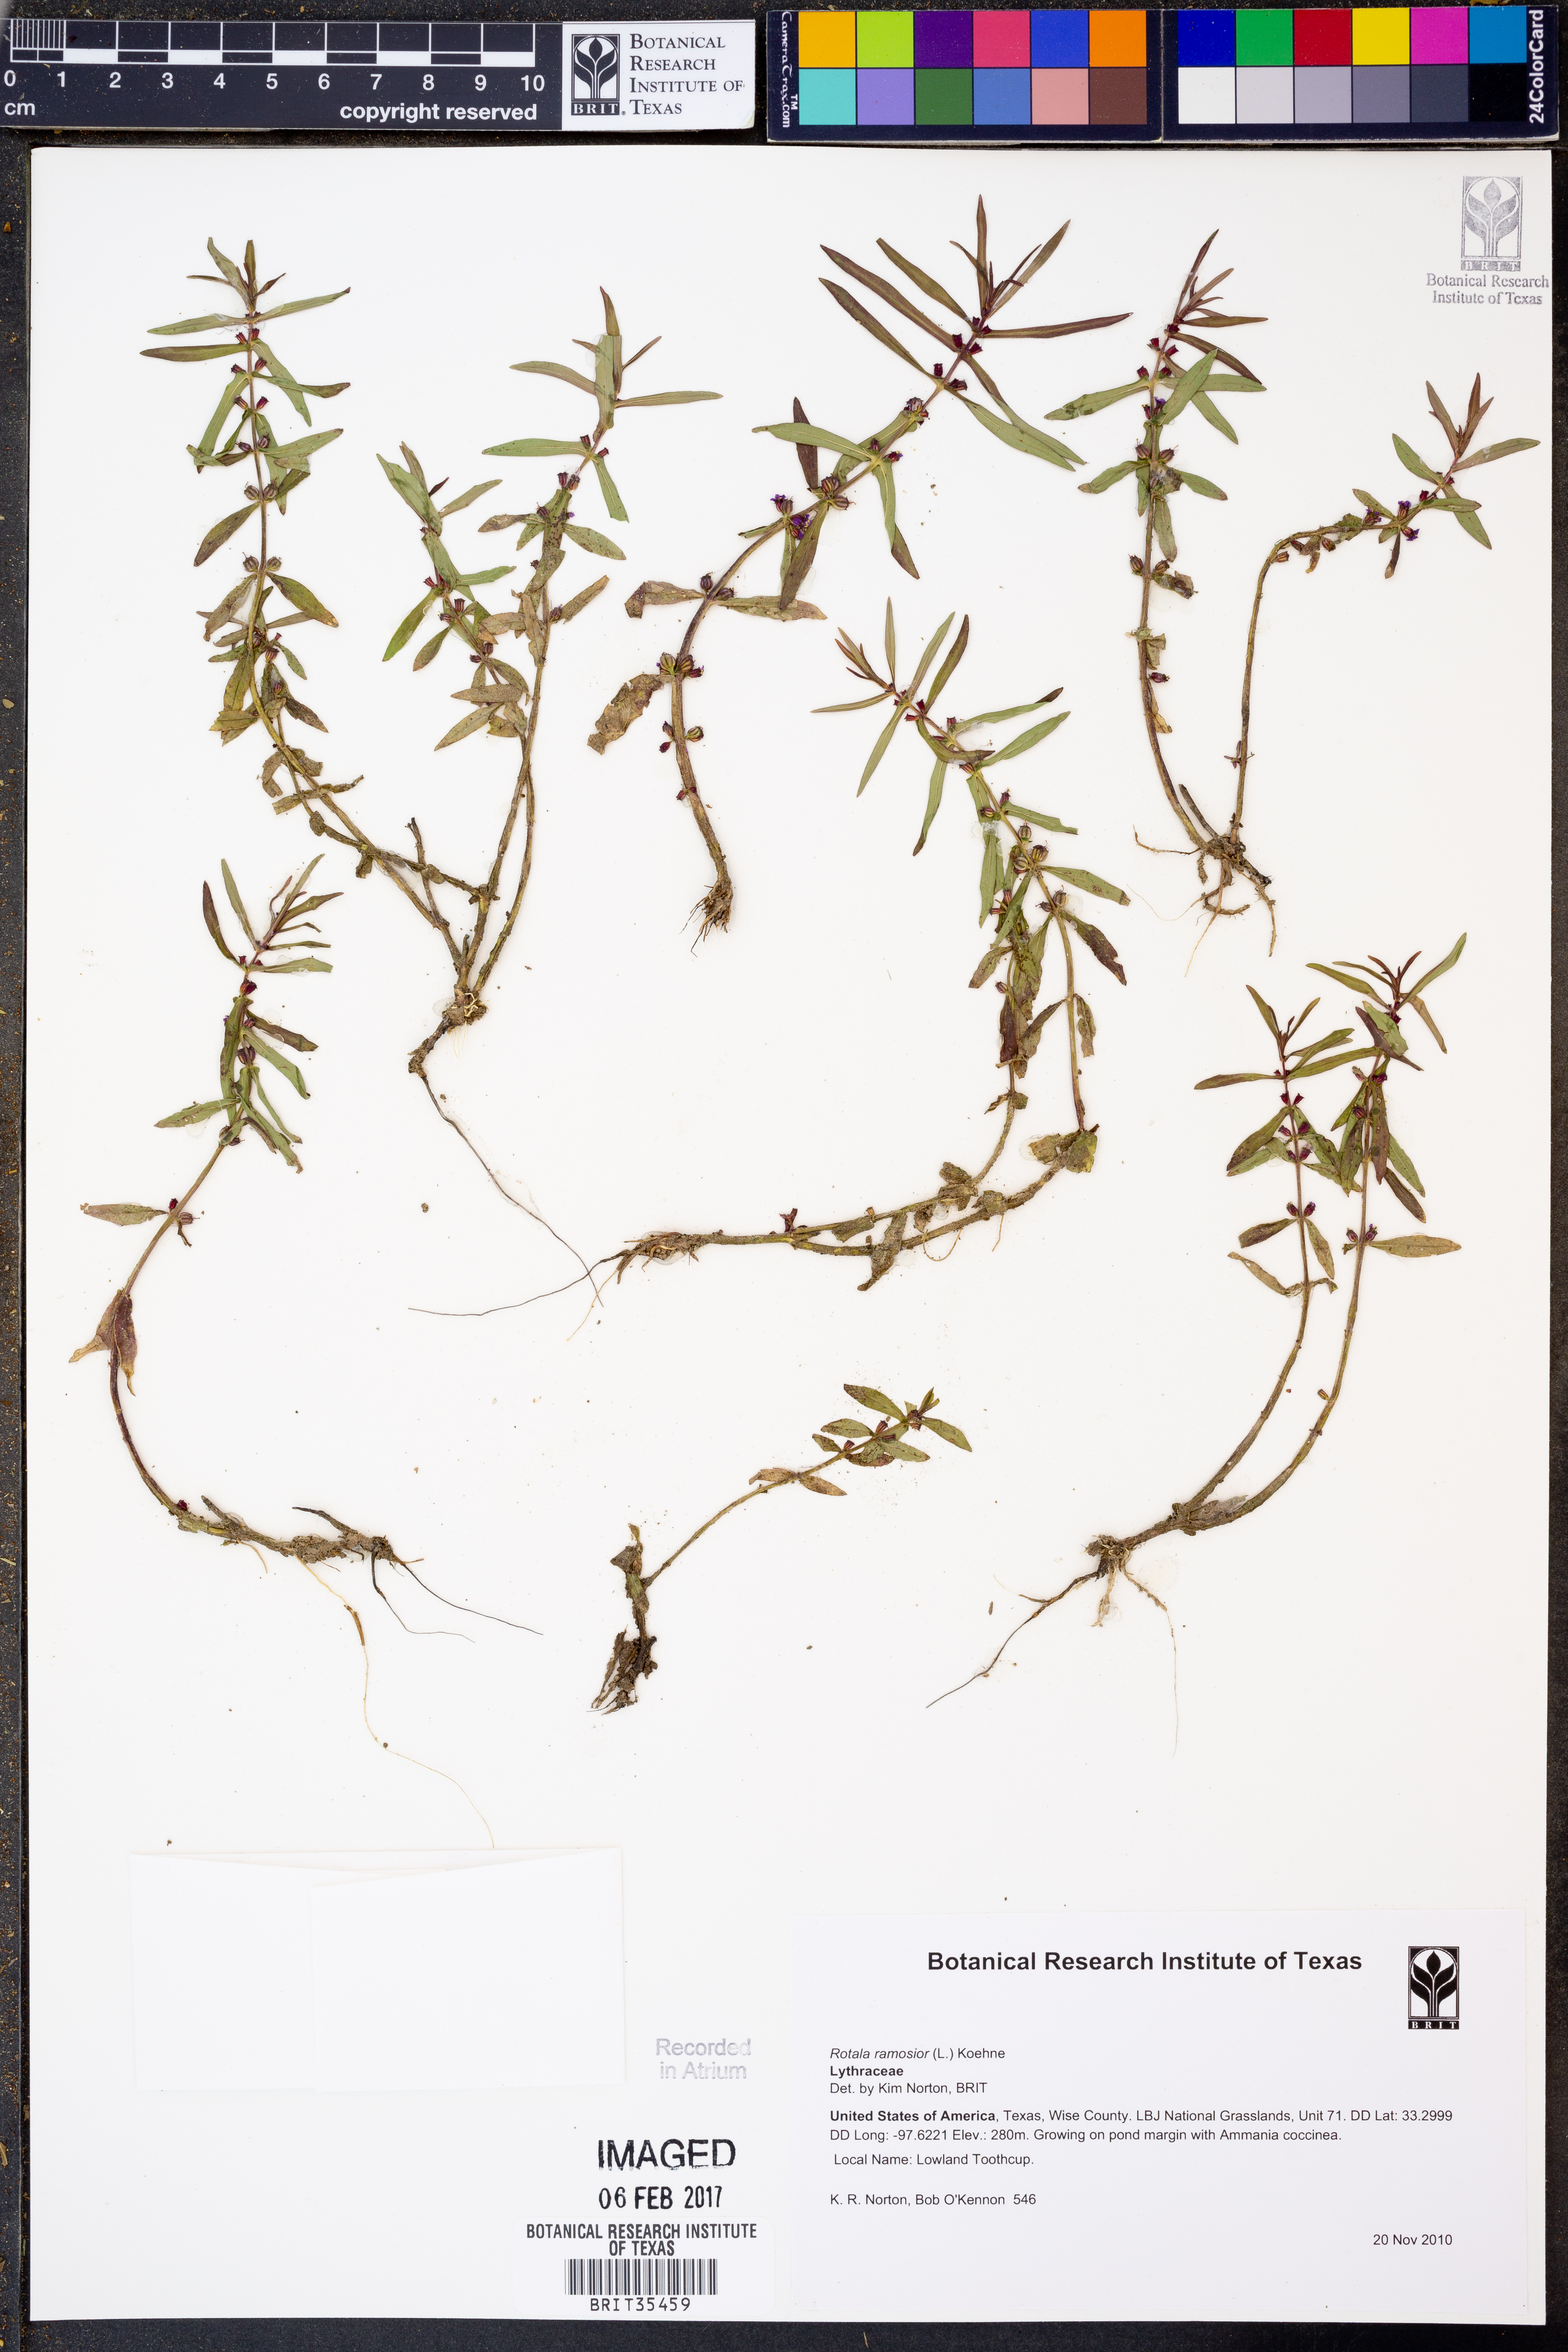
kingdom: Plantae
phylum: Tracheophyta
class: Magnoliopsida
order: Myrtales
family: Lythraceae
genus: Rotala
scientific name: Rotala ramosior
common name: Lowland rotala
